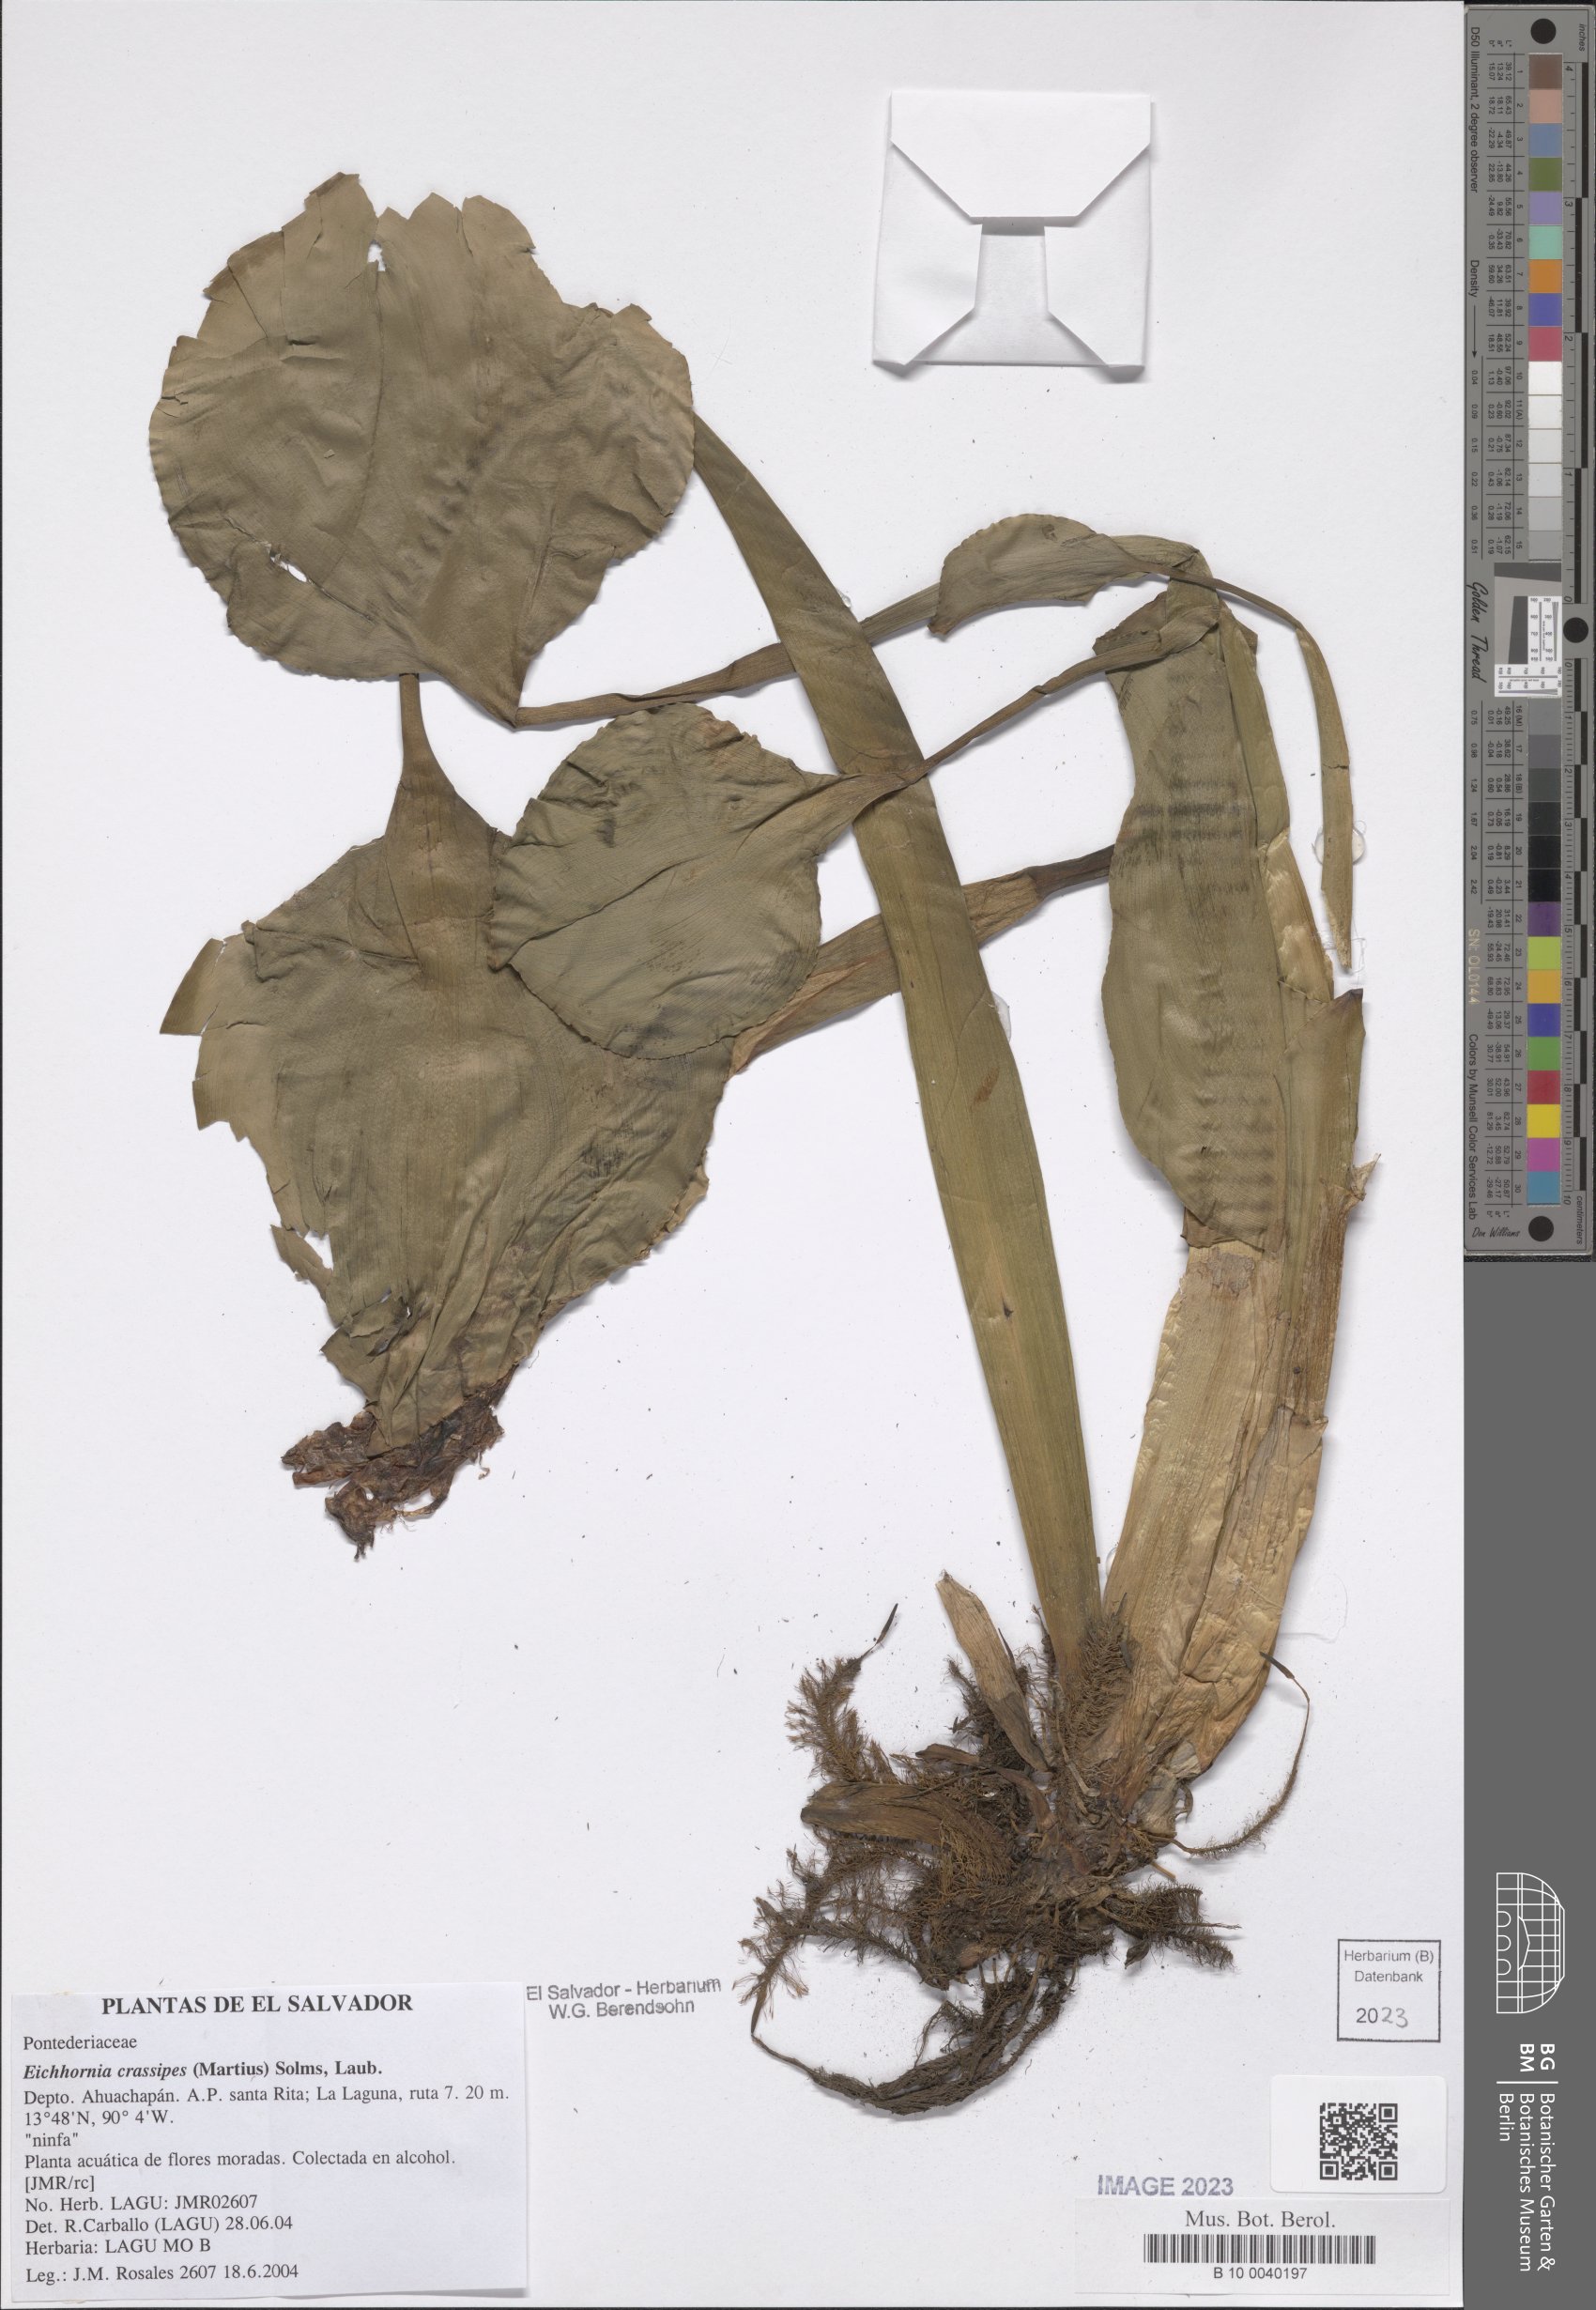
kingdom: Plantae
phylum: Tracheophyta
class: Liliopsida
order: Commelinales
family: Pontederiaceae
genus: Pontederia
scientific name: Pontederia crassipes
